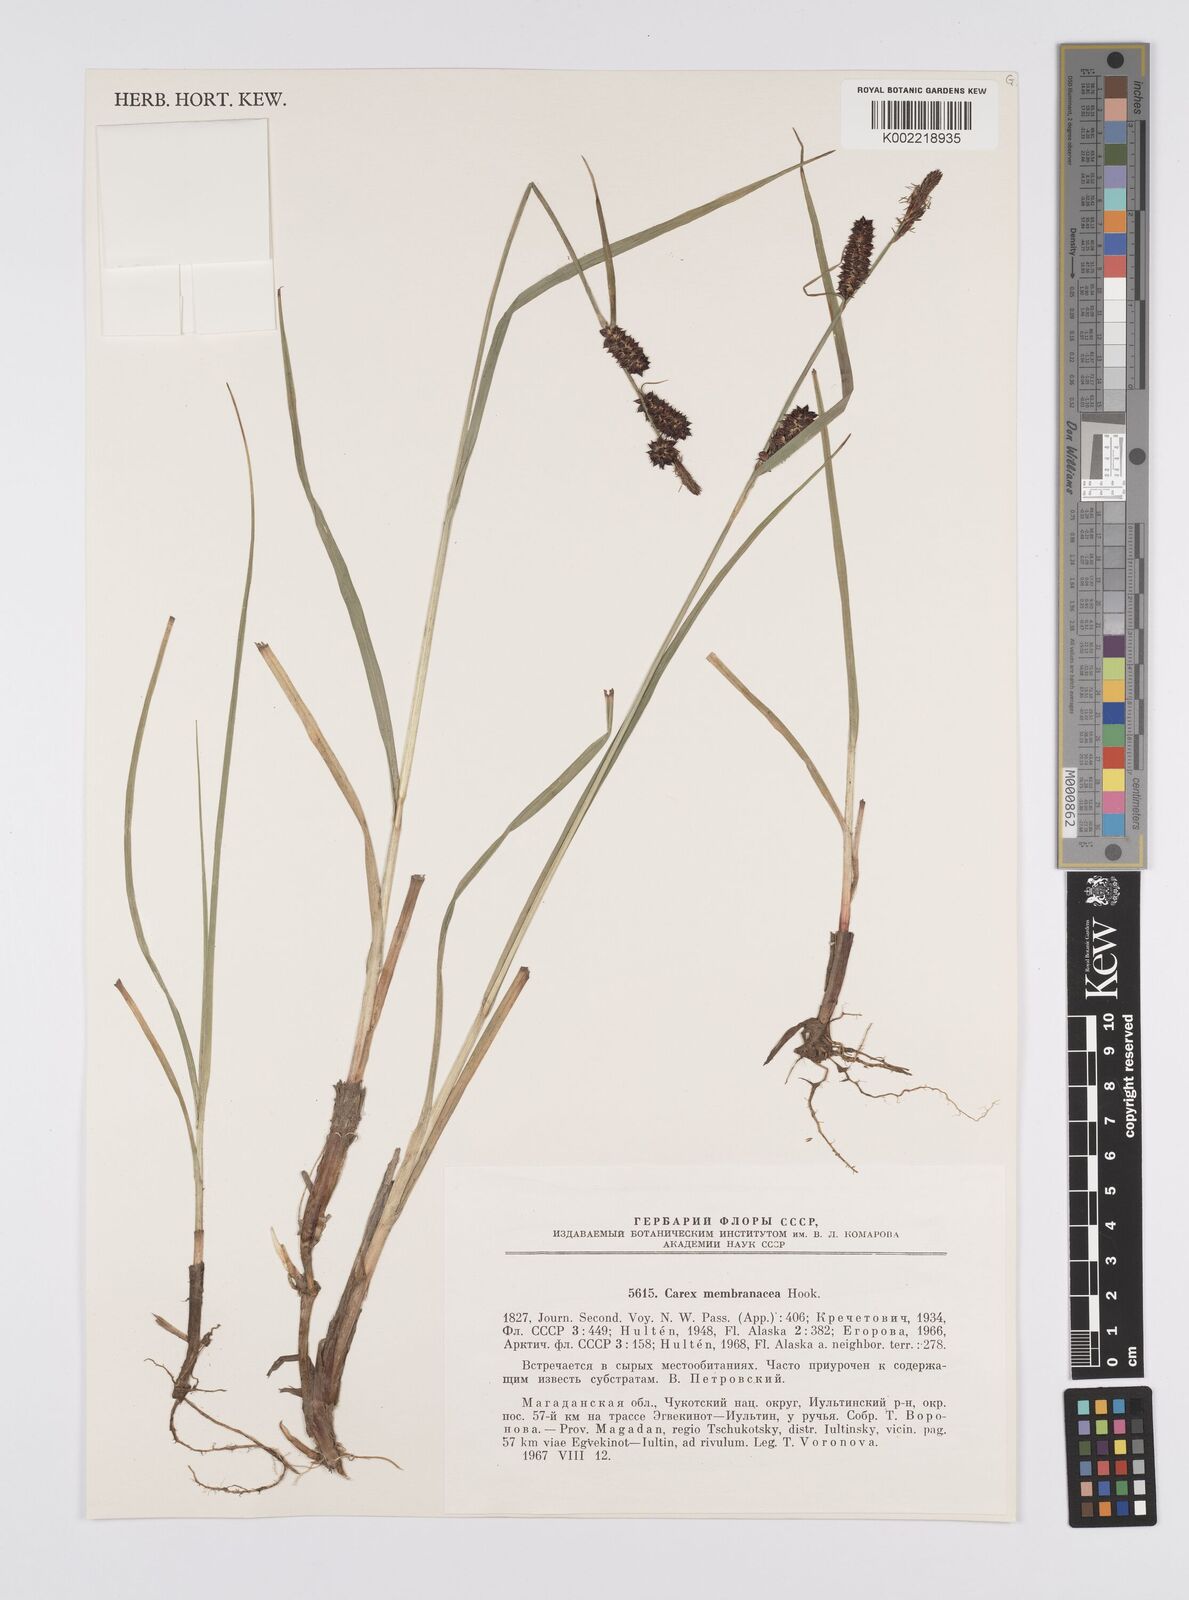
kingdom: Plantae
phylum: Tracheophyta
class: Liliopsida
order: Poales
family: Cyperaceae
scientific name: Cyperaceae
